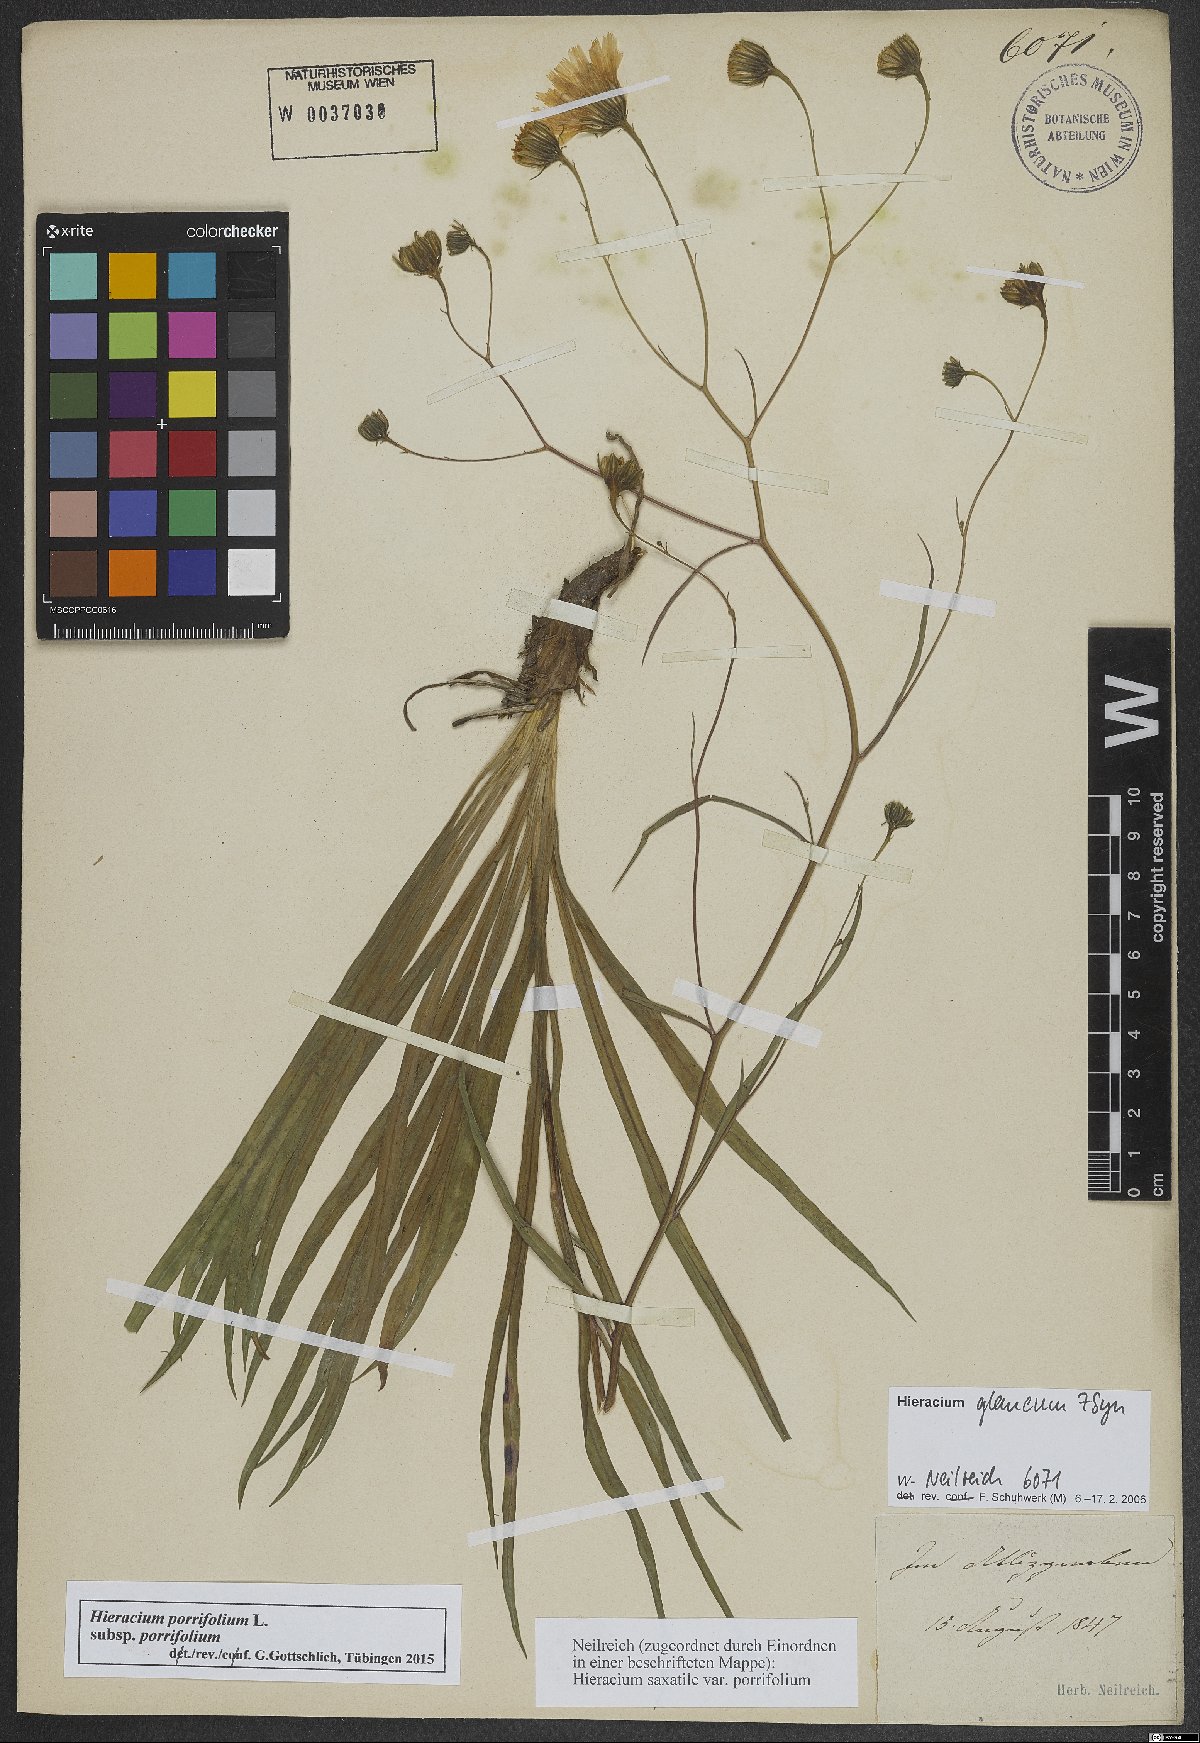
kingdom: Plantae
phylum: Tracheophyta
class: Magnoliopsida
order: Asterales
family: Asteraceae
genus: Hieracium
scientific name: Hieracium porrifolium
